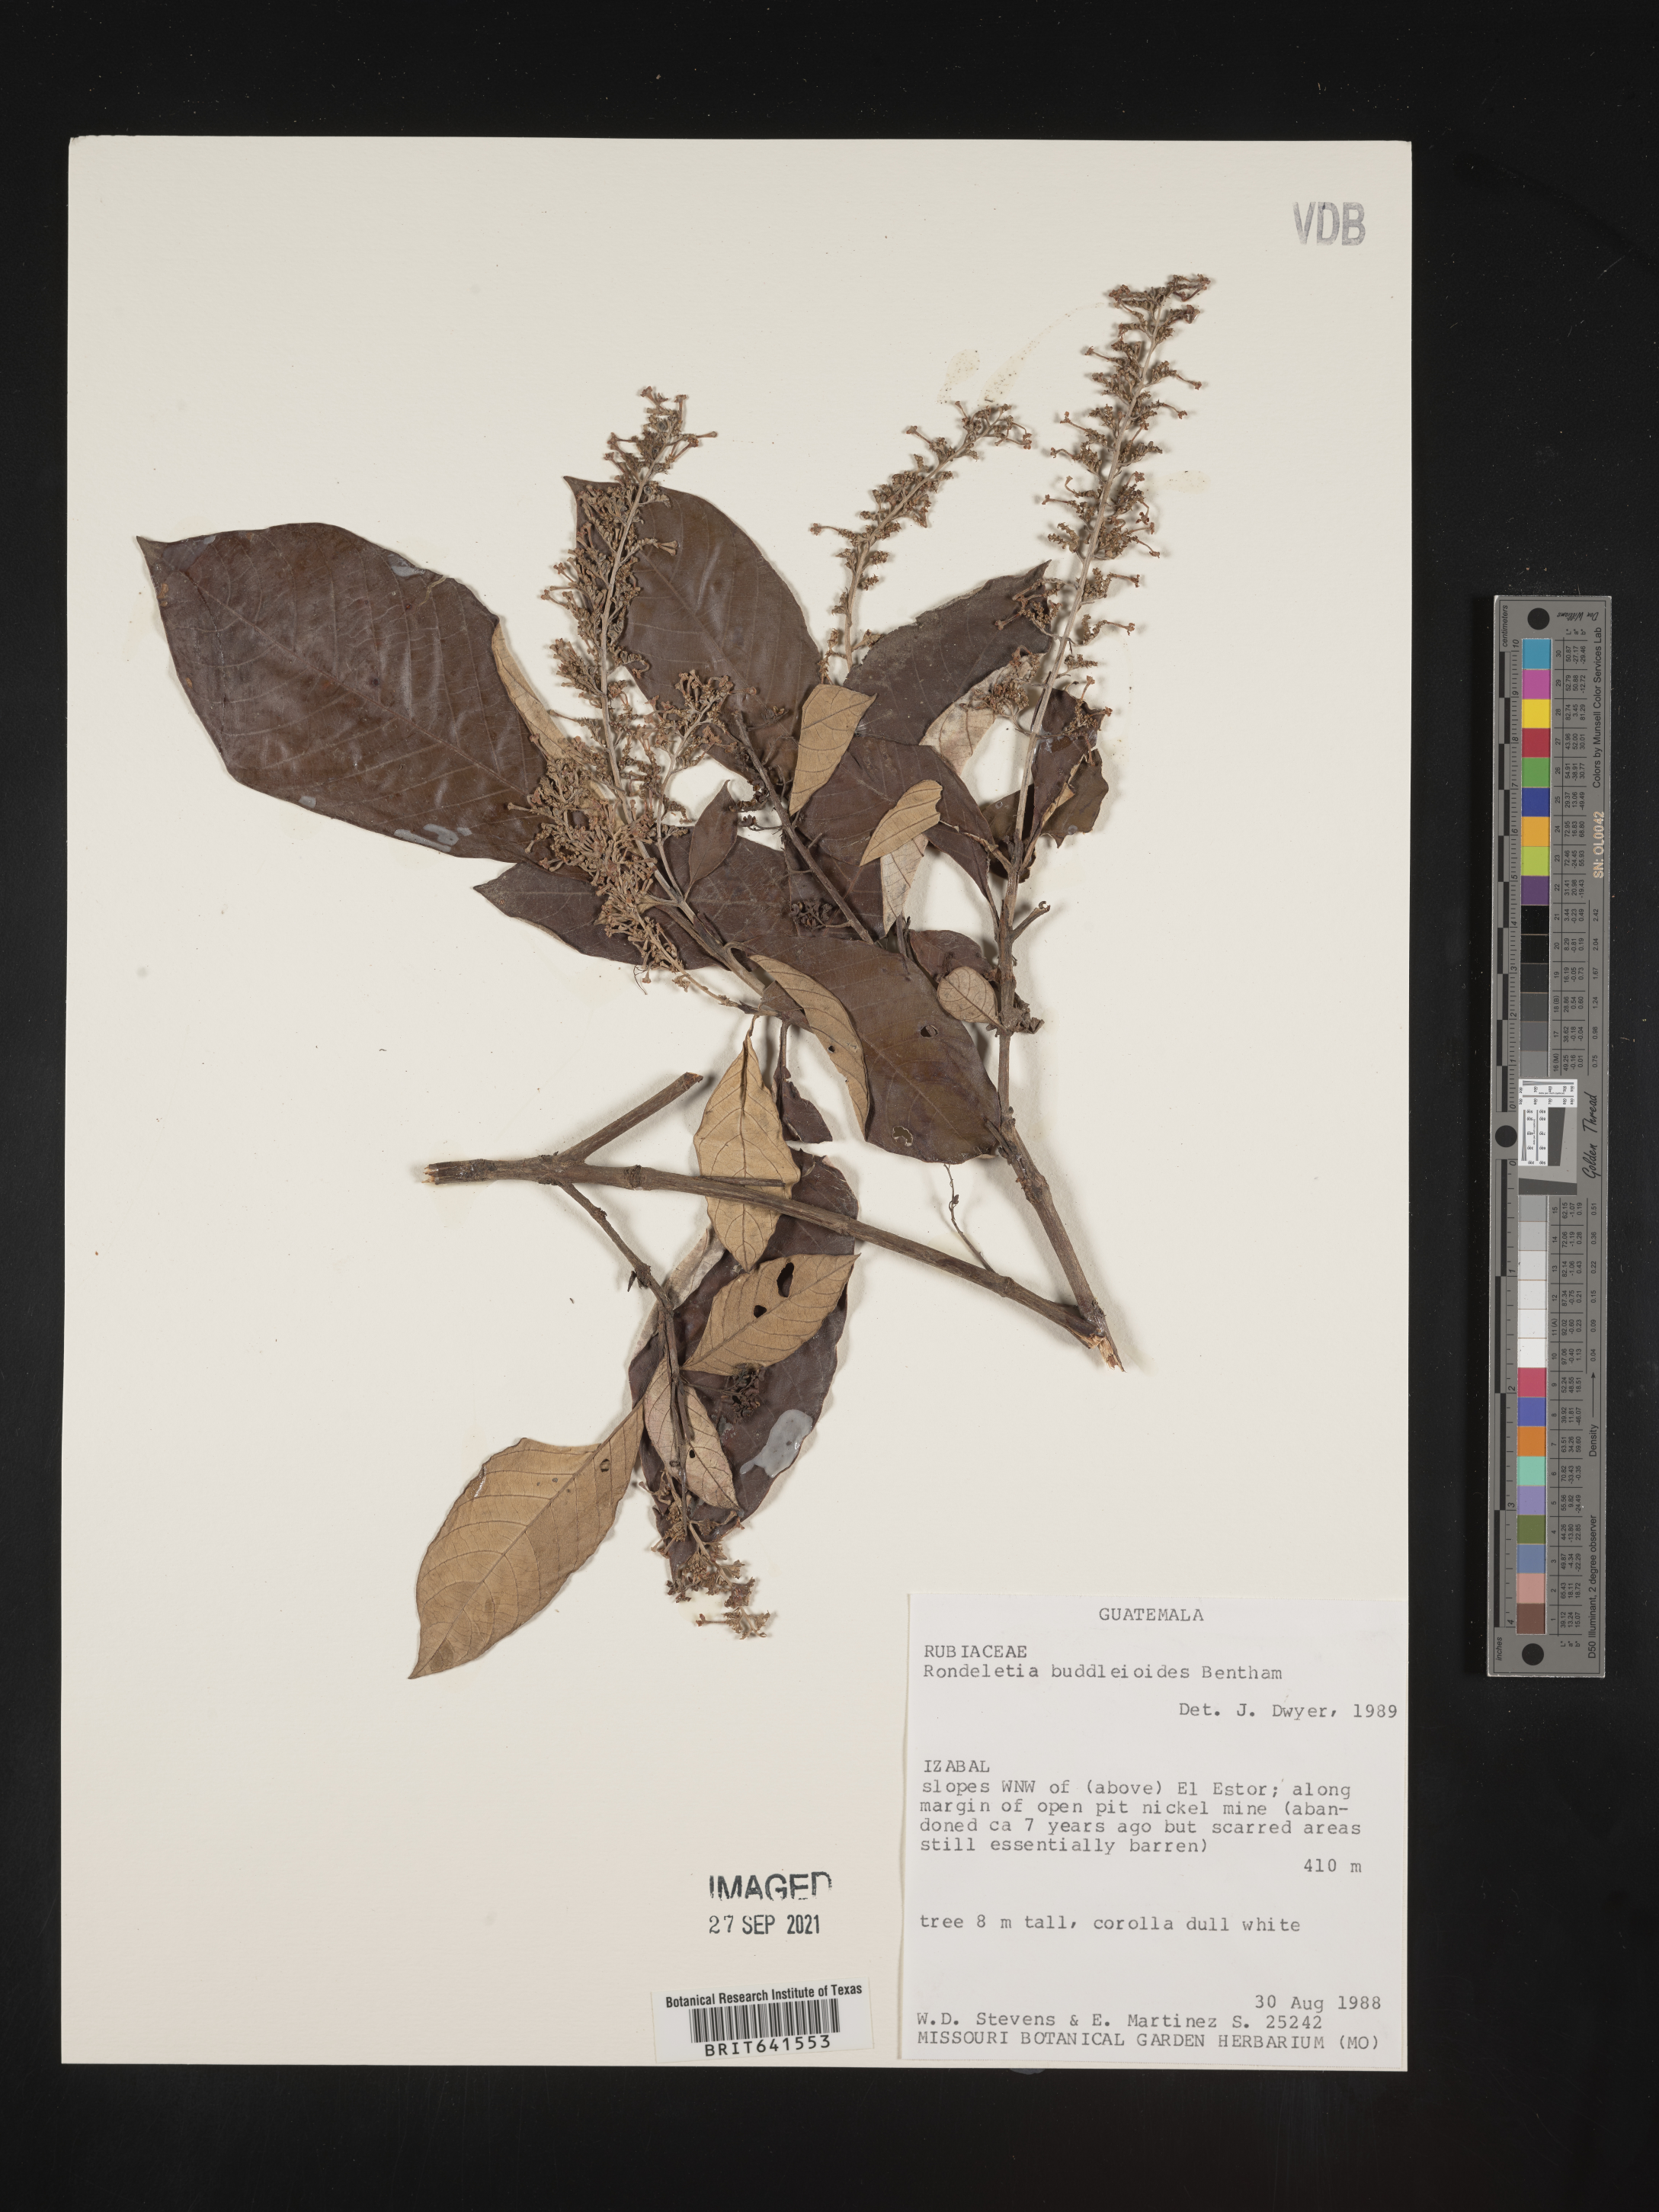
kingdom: Plantae
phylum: Tracheophyta
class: Magnoliopsida
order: Gentianales
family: Rubiaceae
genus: Rondeletia
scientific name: Rondeletia
